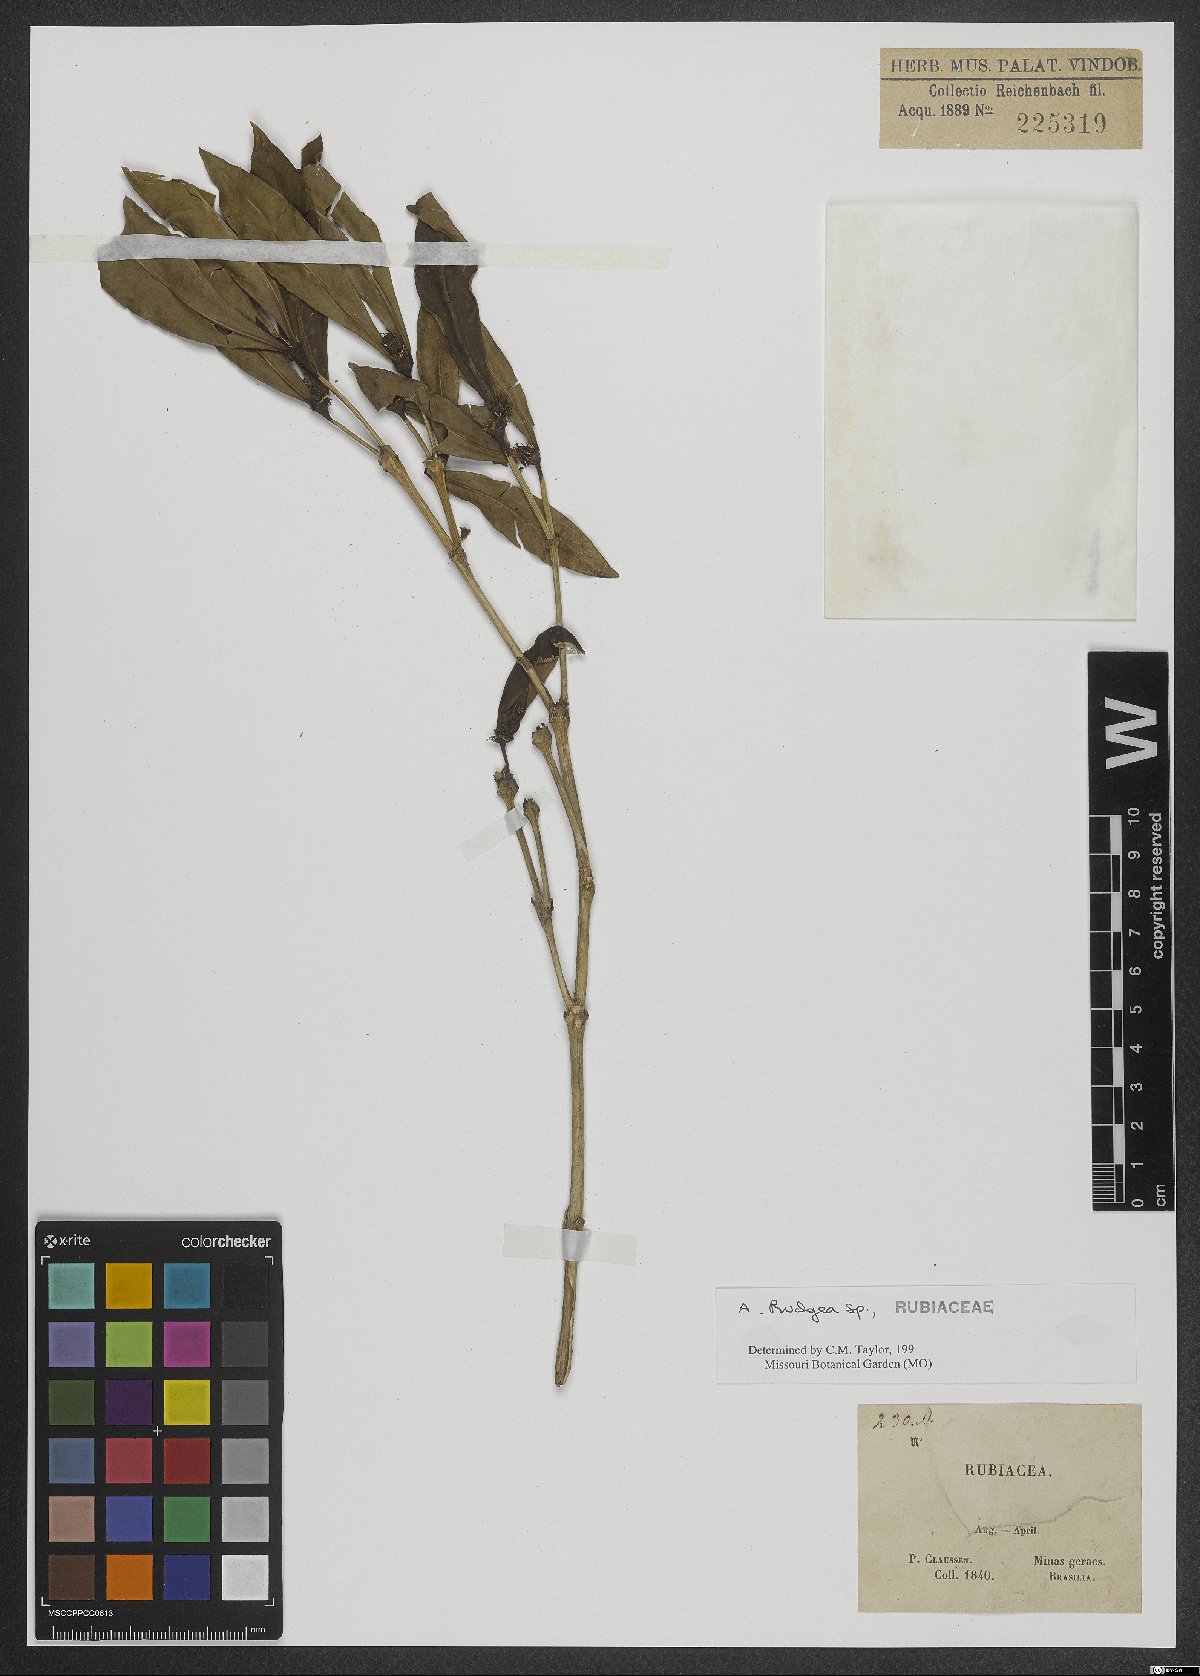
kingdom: Plantae
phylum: Tracheophyta
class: Magnoliopsida
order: Gentianales
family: Rubiaceae
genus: Rudgea
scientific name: Rudgea
